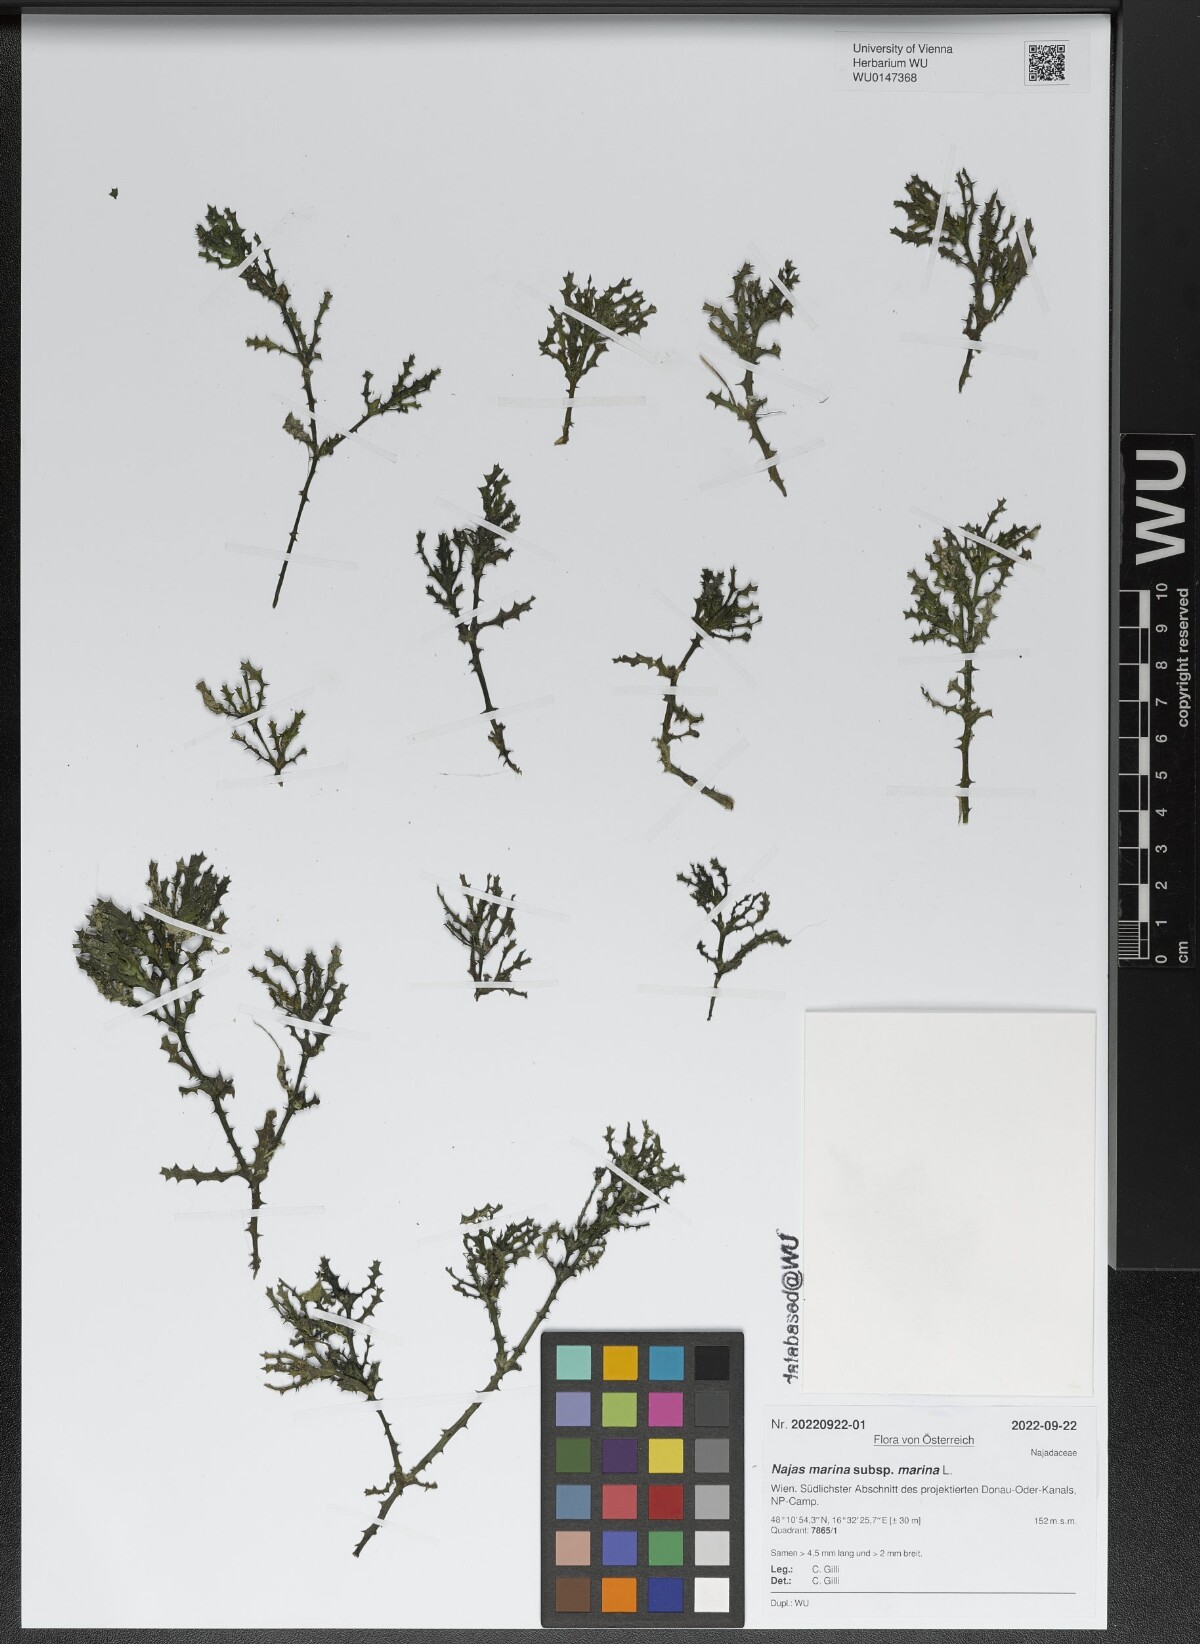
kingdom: Plantae
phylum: Tracheophyta
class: Liliopsida
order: Alismatales
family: Hydrocharitaceae
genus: Najas
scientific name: Najas marina
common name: Holly-leaved naiad
